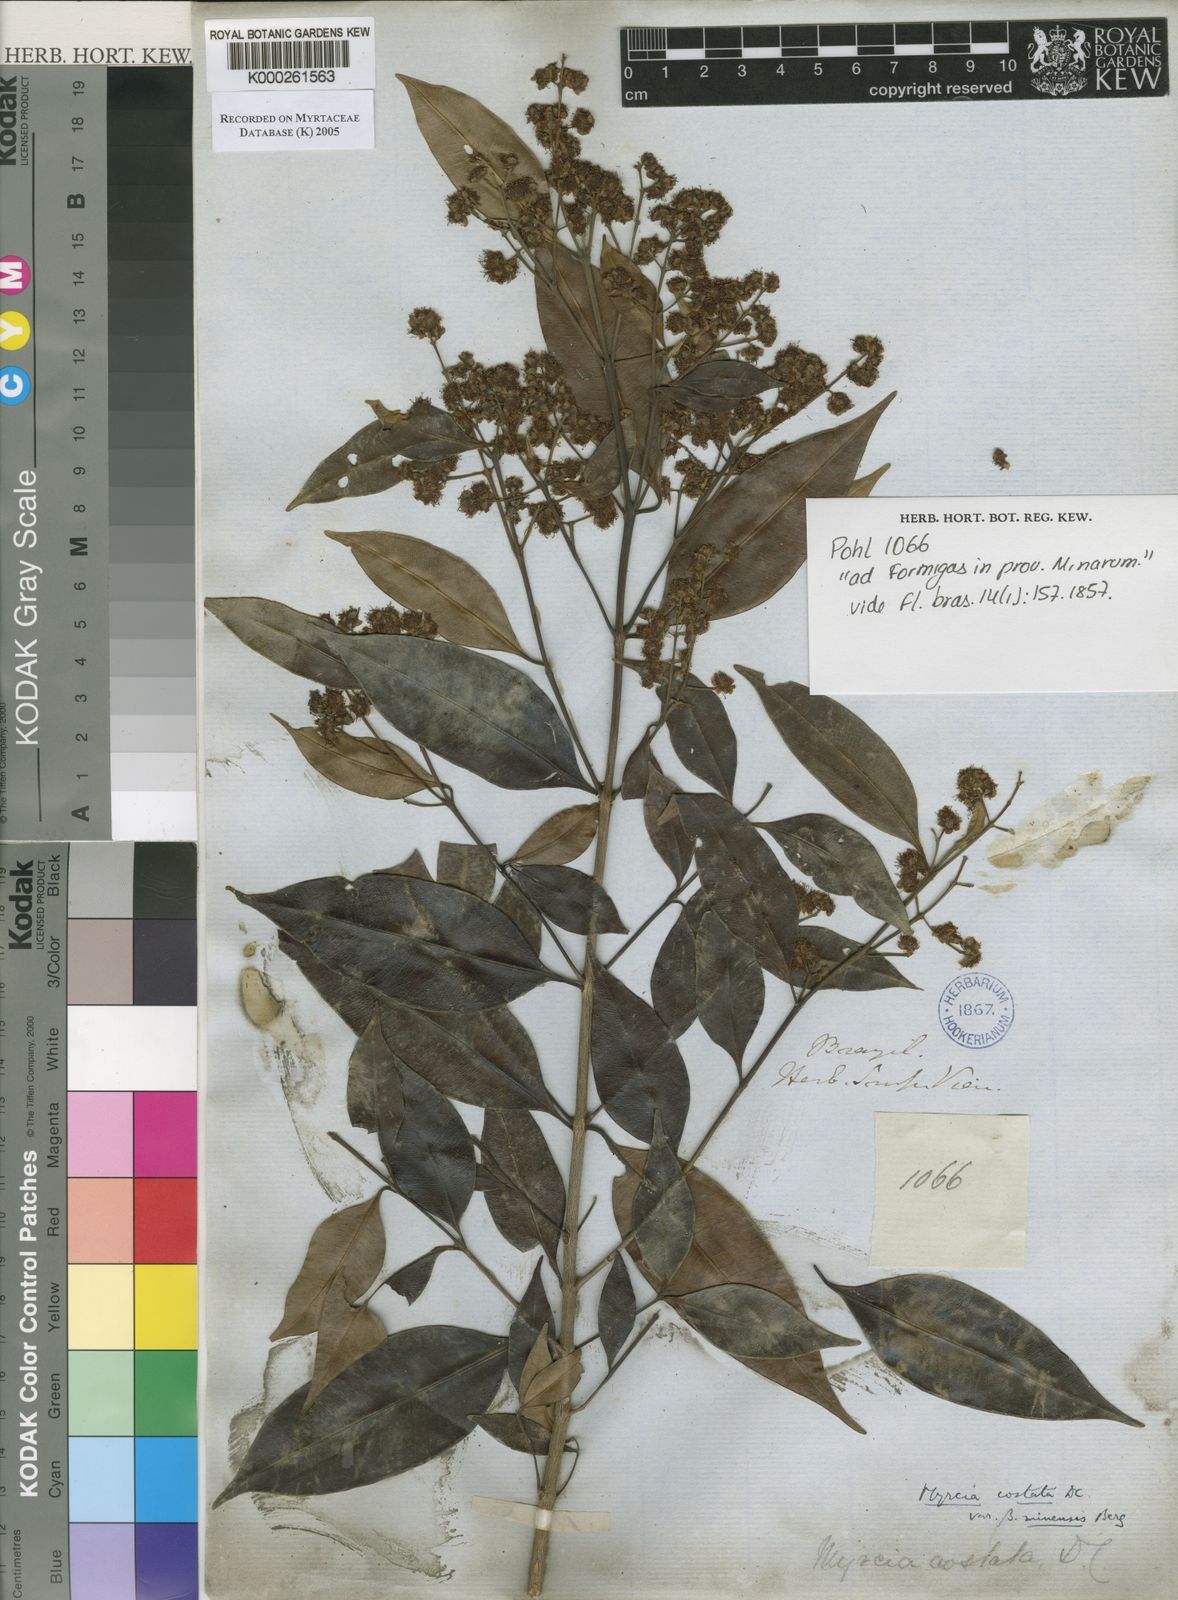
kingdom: Plantae
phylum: Tracheophyta
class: Magnoliopsida
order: Myrtales
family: Myrtaceae
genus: Myrcia
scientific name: Myrcia splendens
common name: Surinam cherry
